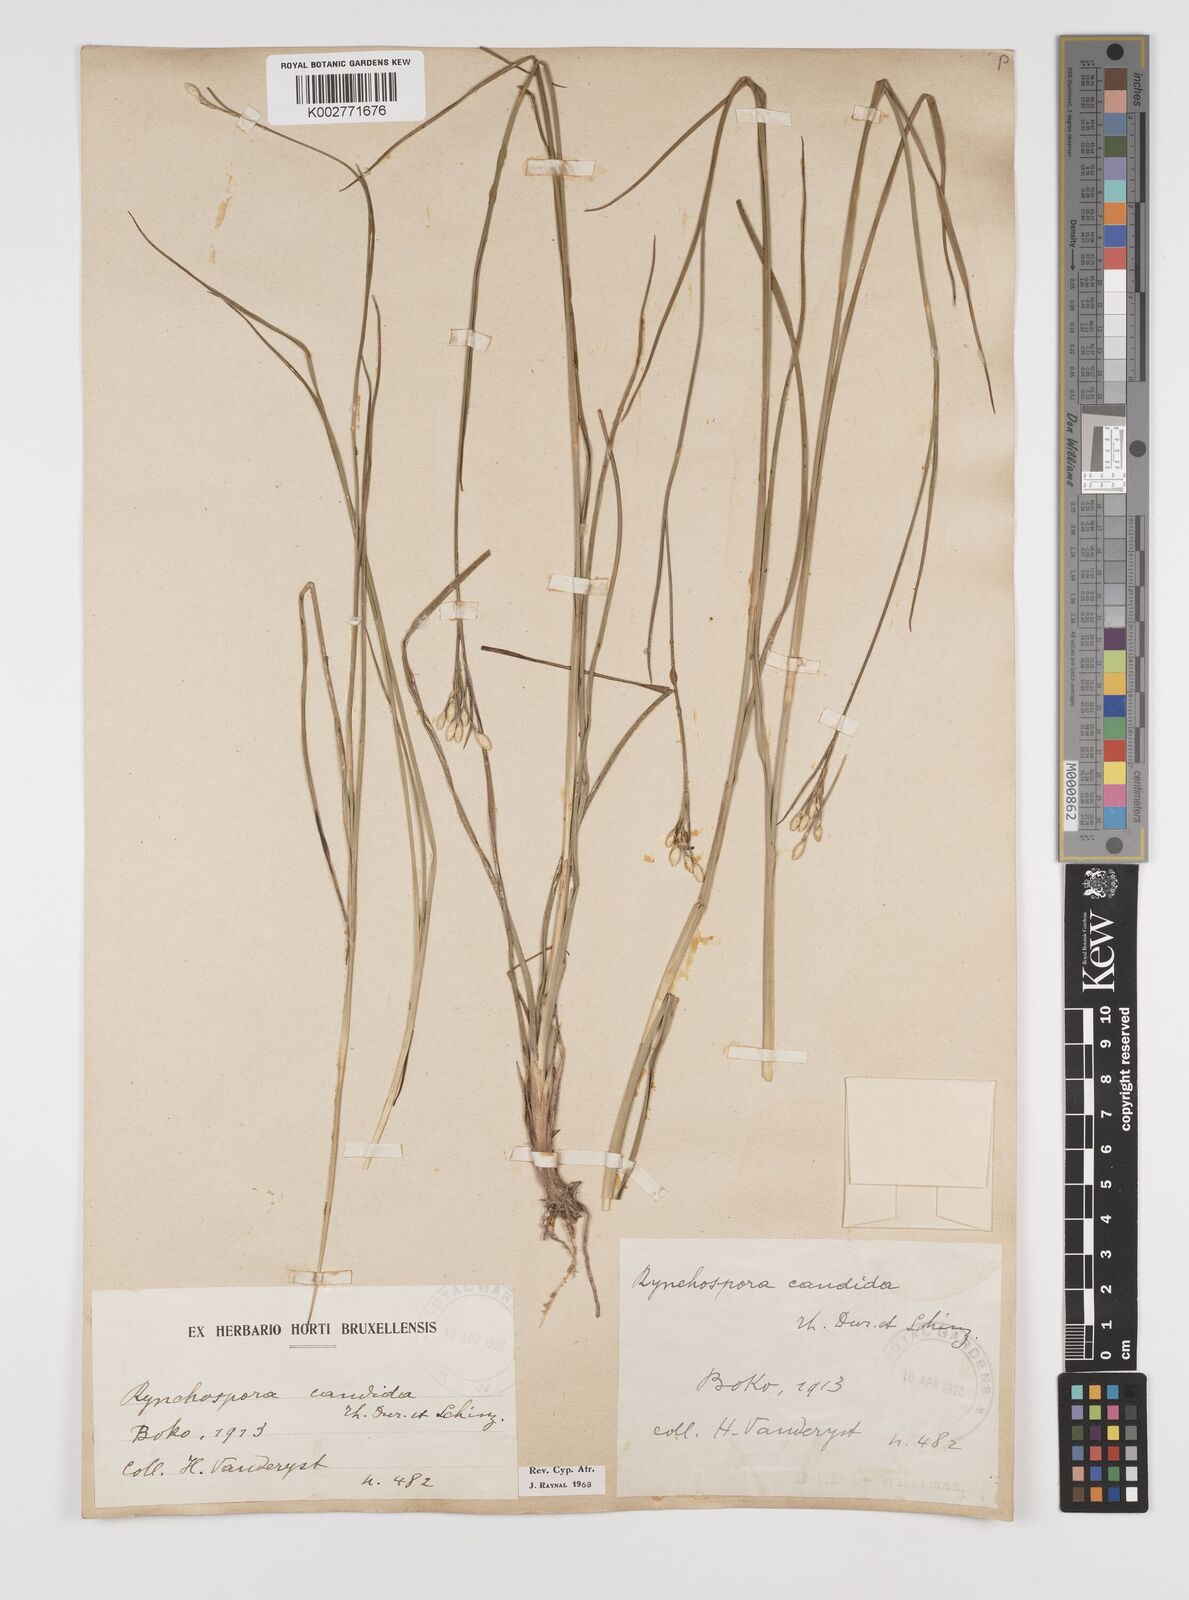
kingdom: Plantae
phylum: Tracheophyta
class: Liliopsida
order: Poales
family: Cyperaceae
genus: Rhynchospora
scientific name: Rhynchospora candida
